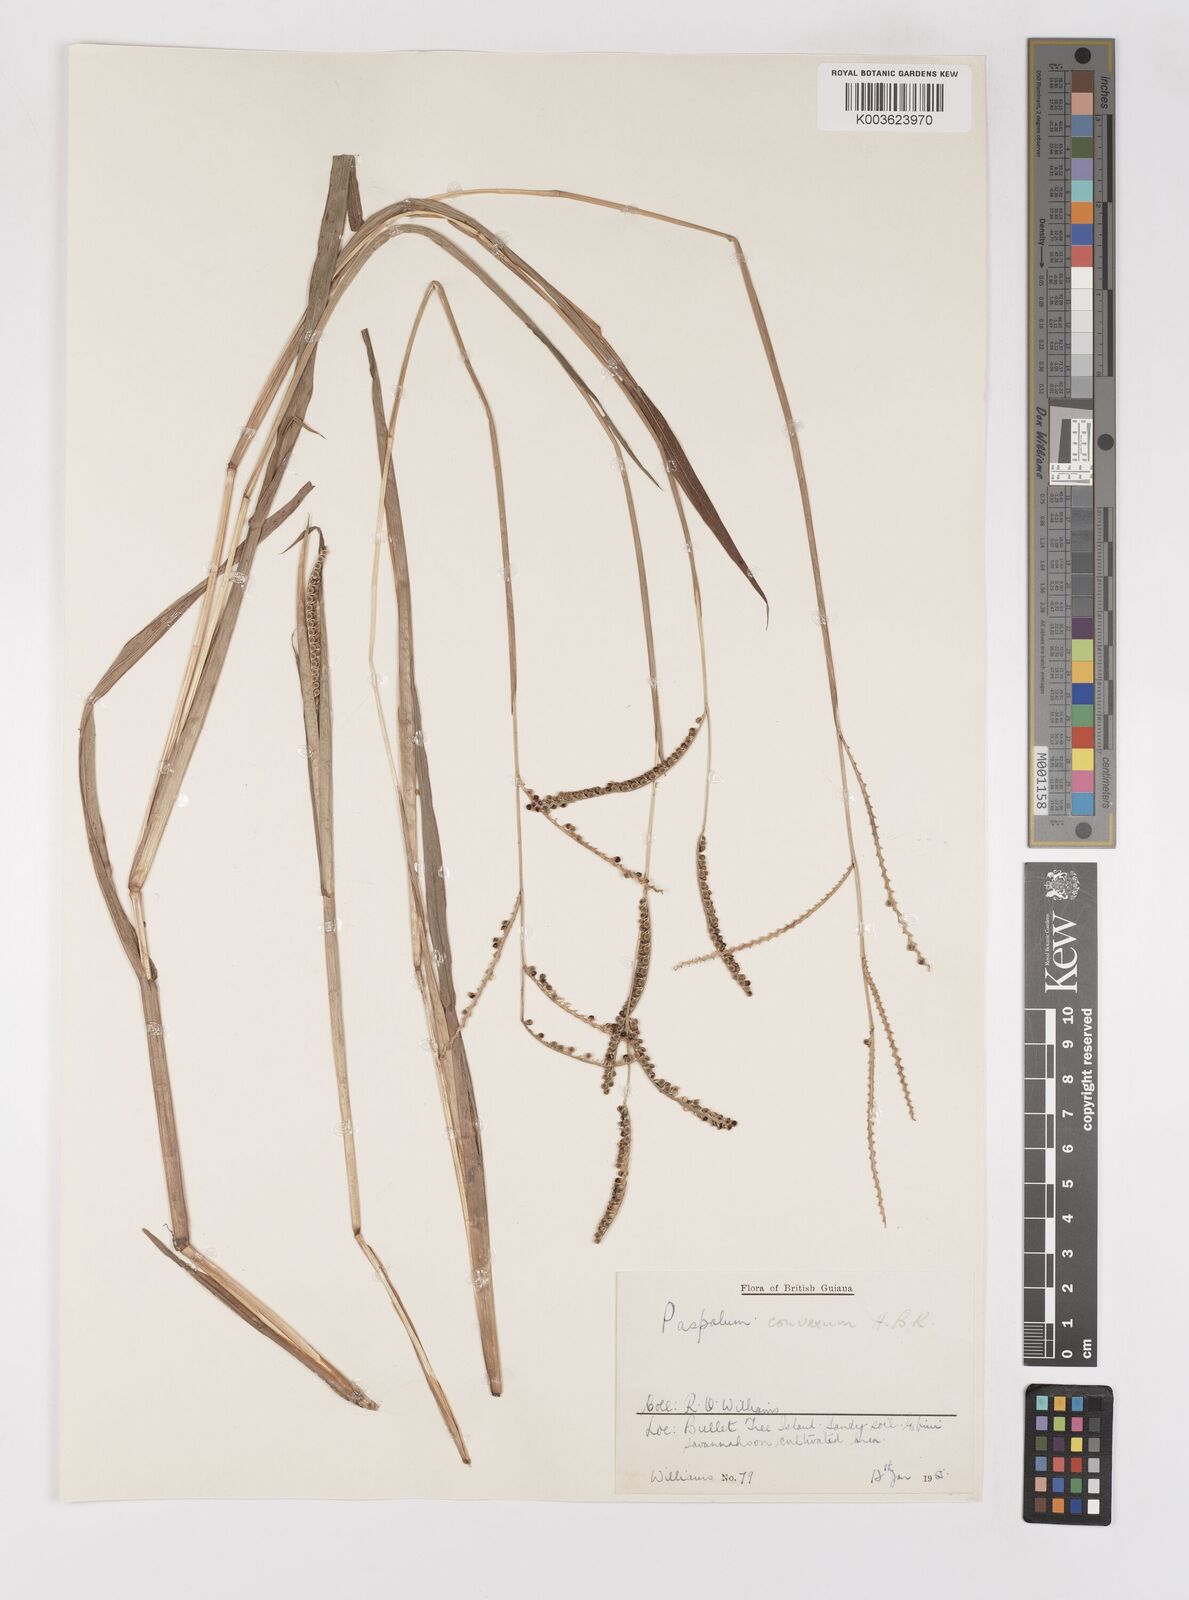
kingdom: Plantae
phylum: Tracheophyta
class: Liliopsida
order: Poales
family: Poaceae
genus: Paspalum
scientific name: Paspalum convexum
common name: Latin american crowngrass
